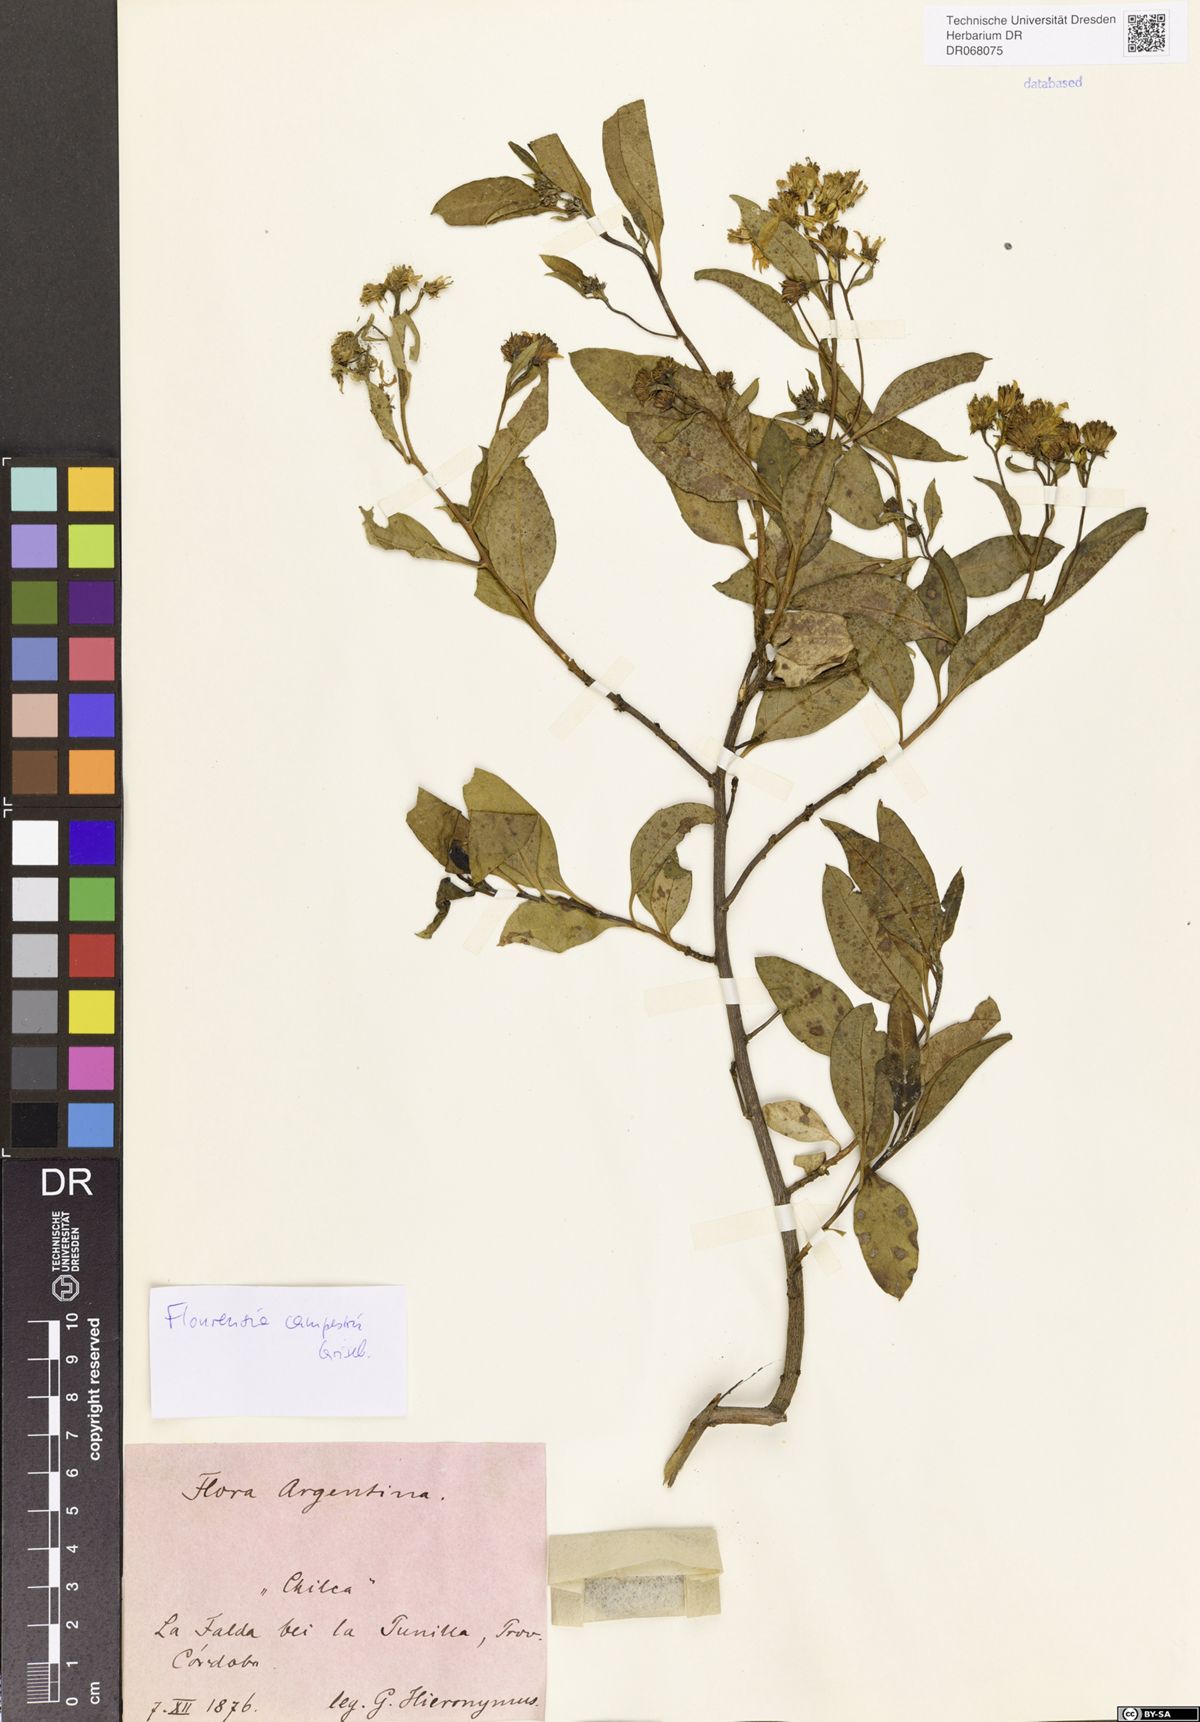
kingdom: Plantae
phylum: Tracheophyta
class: Magnoliopsida
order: Asterales
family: Asteraceae
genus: Flourensia
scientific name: Flourensia campestris
